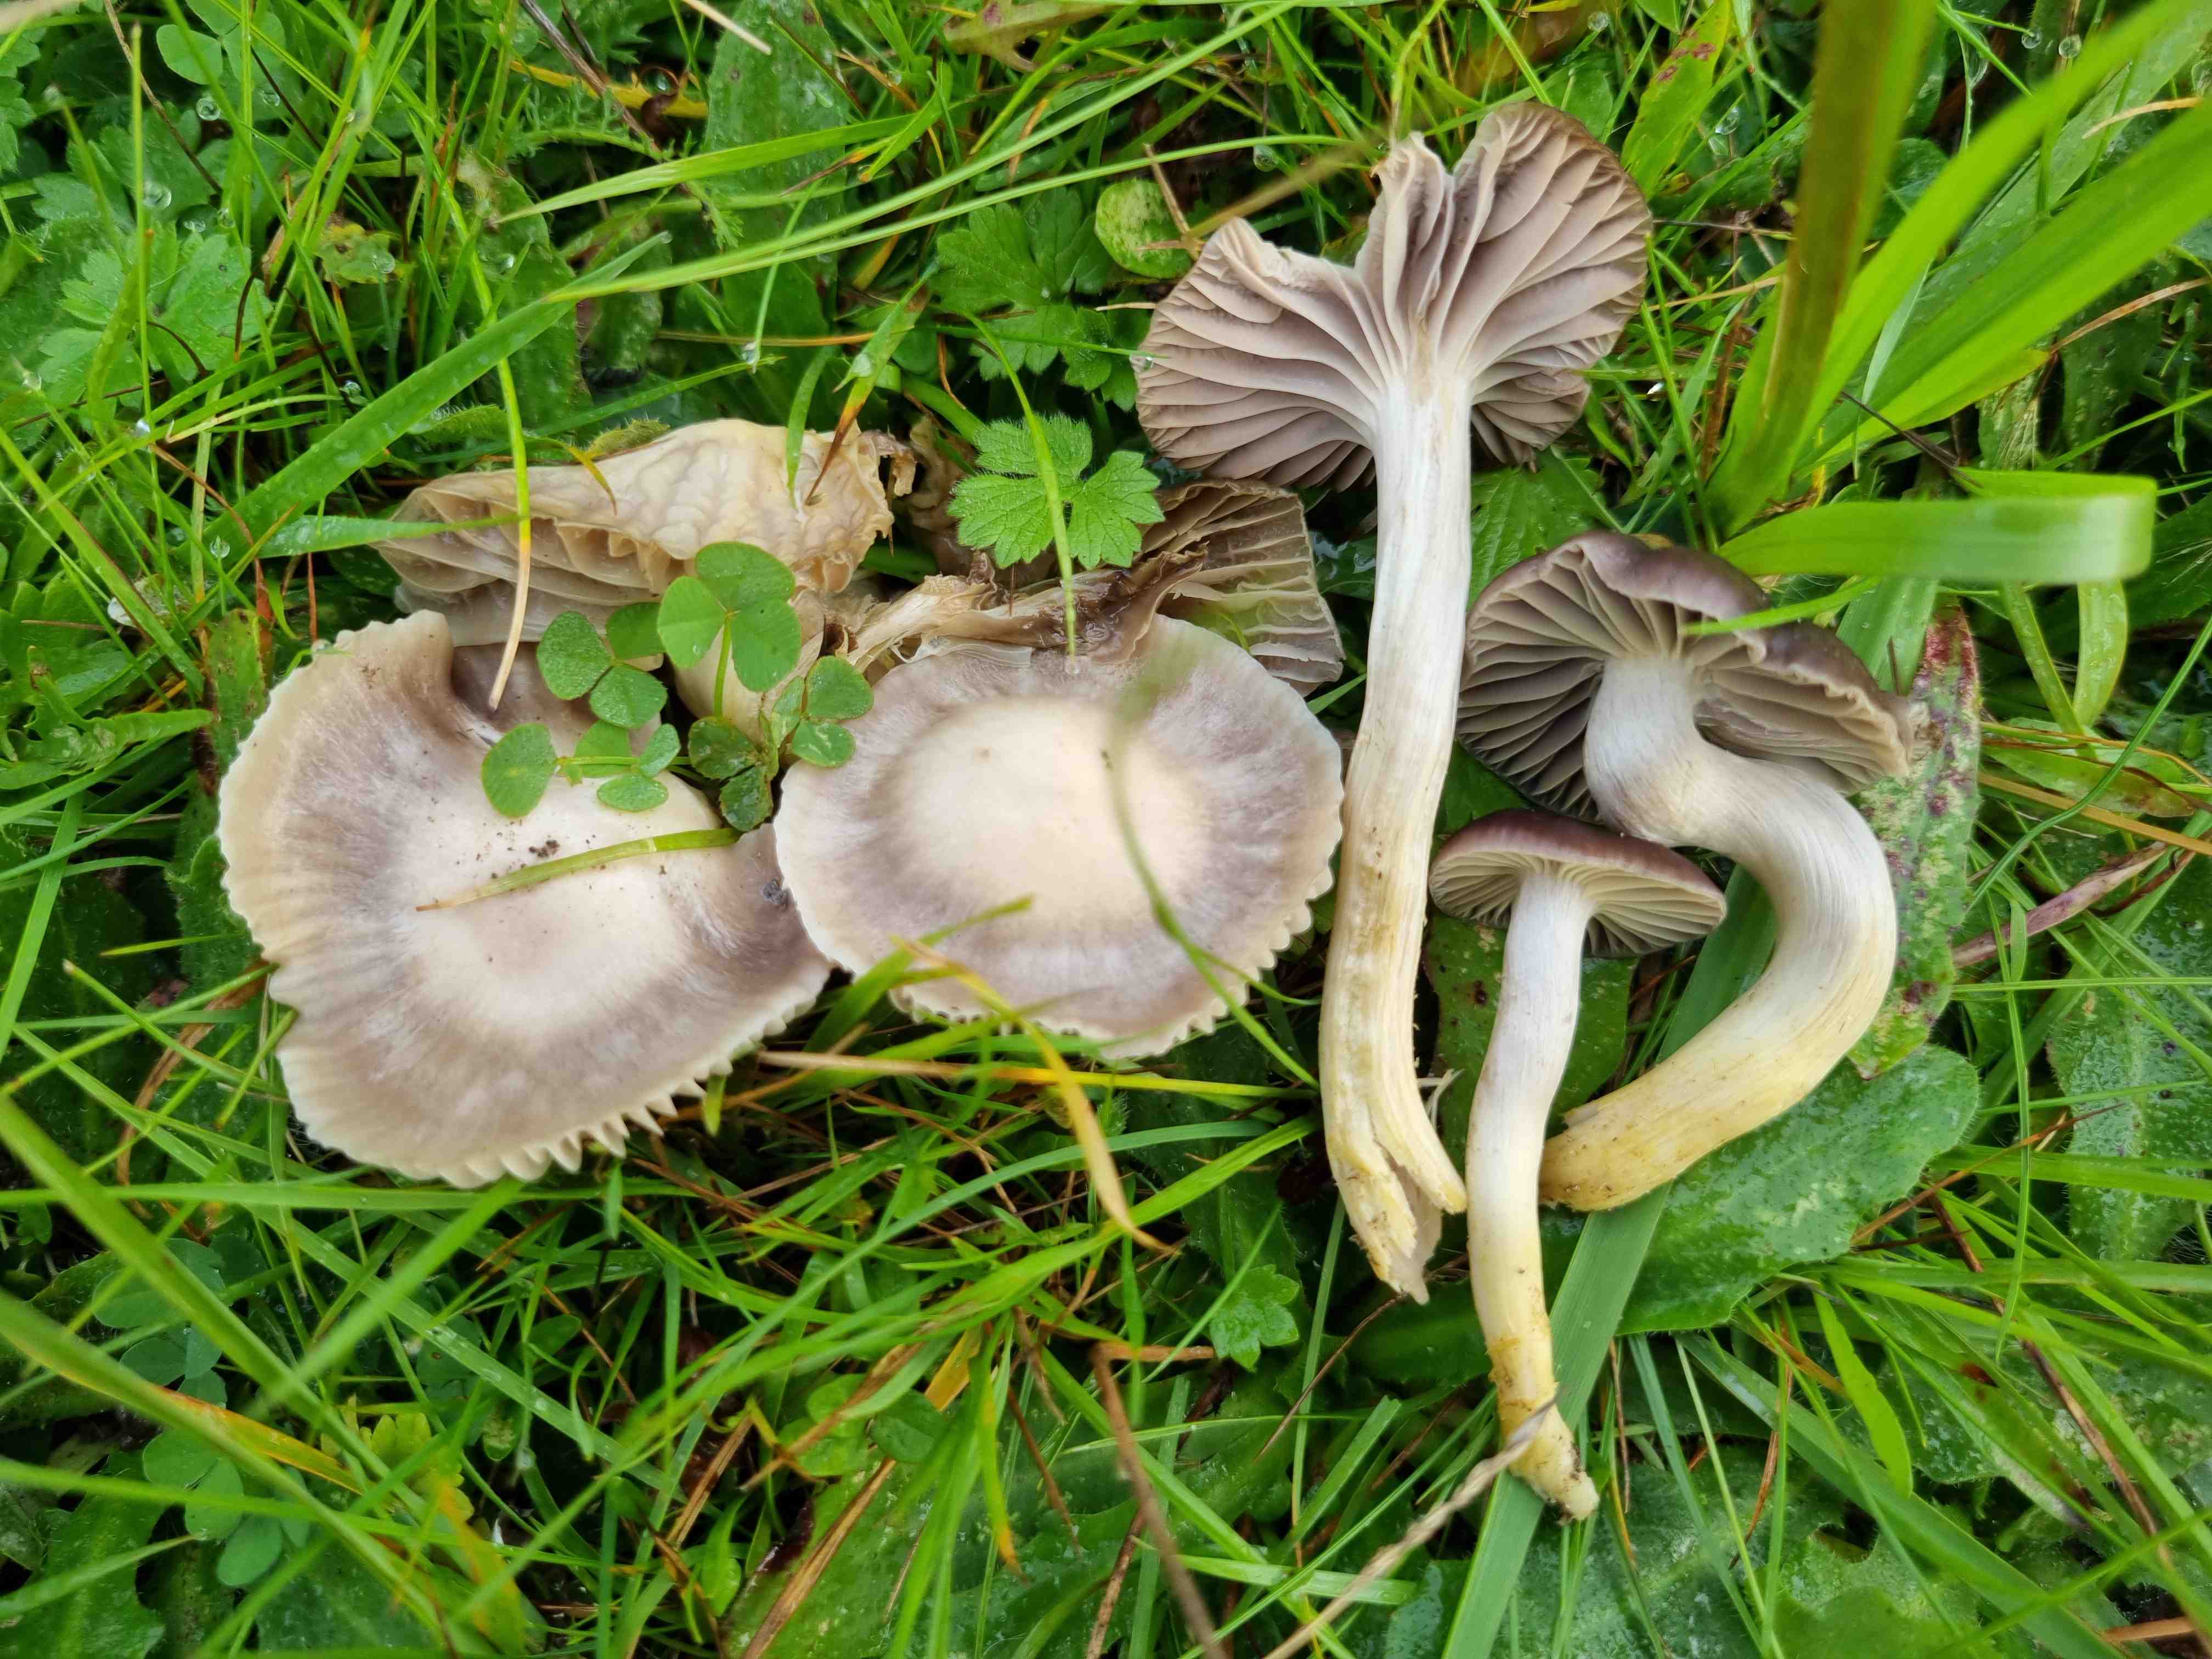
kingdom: Fungi
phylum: Basidiomycota
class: Agaricomycetes
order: Agaricales
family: Hygrophoraceae
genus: Cuphophyllus
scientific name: Cuphophyllus flavipes
